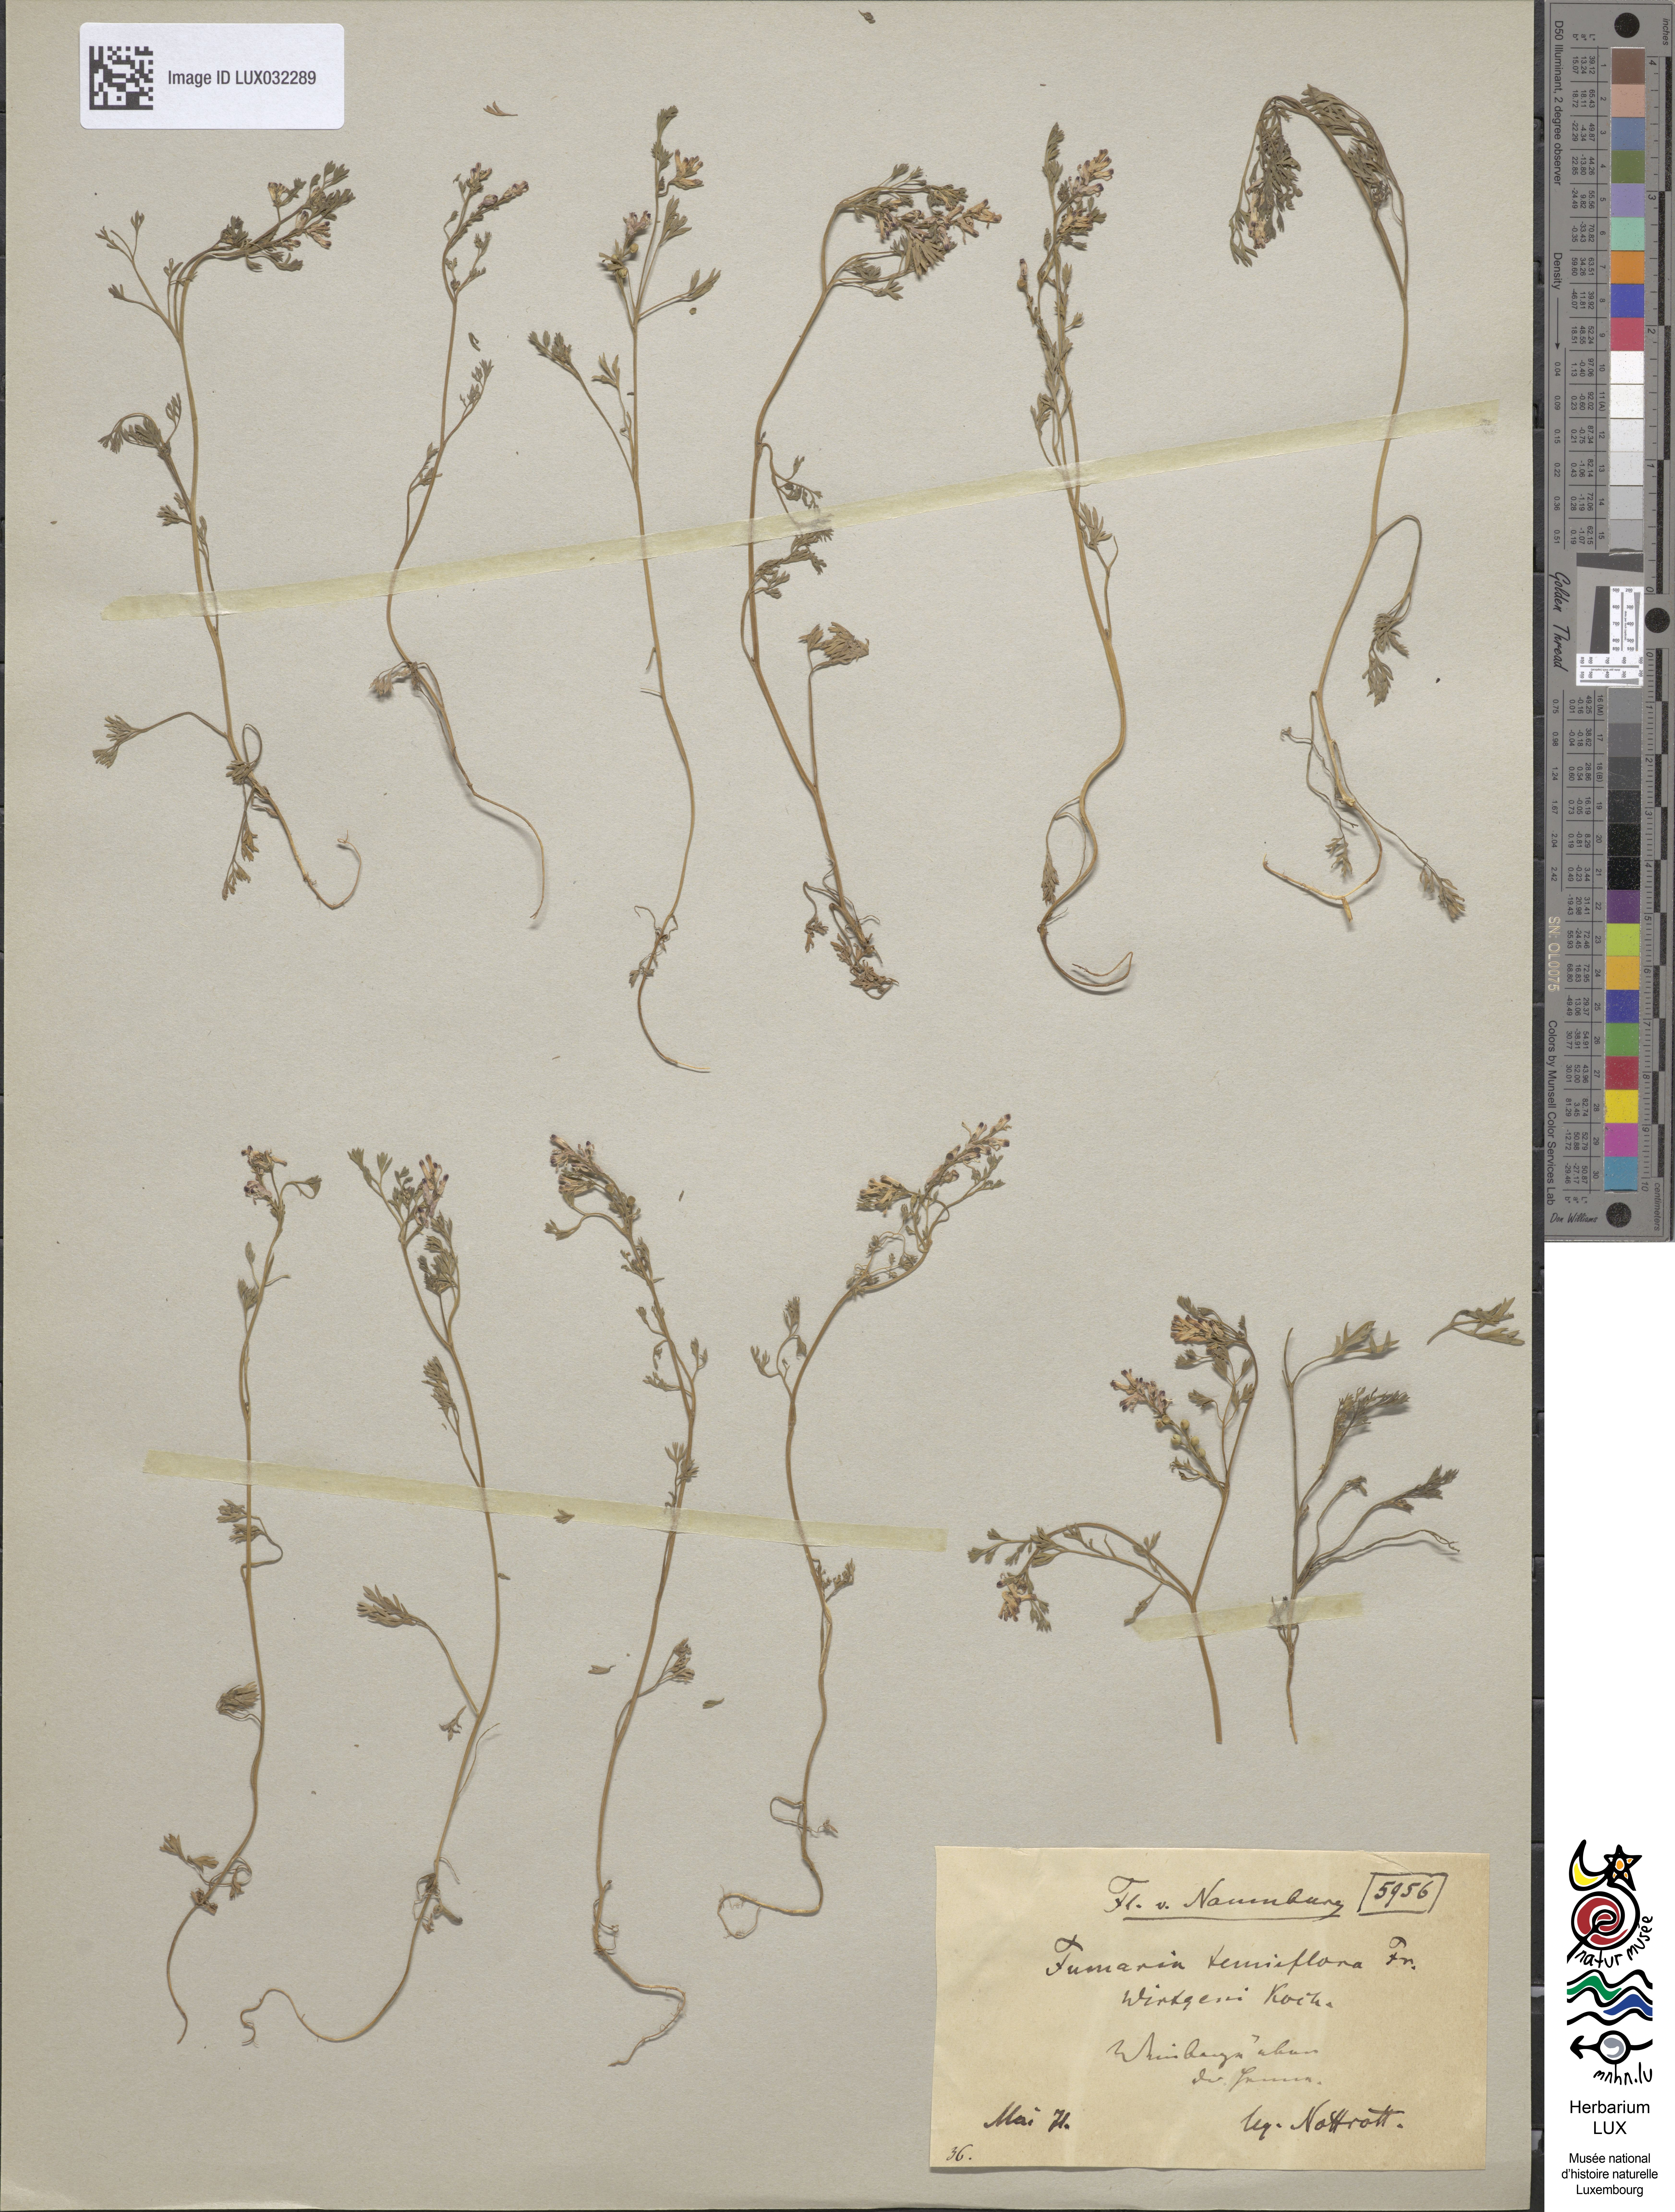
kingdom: Plantae
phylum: Tracheophyta
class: Magnoliopsida
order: Ranunculales
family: Papaveraceae
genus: Fumaria
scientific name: Fumaria wirtgenii
